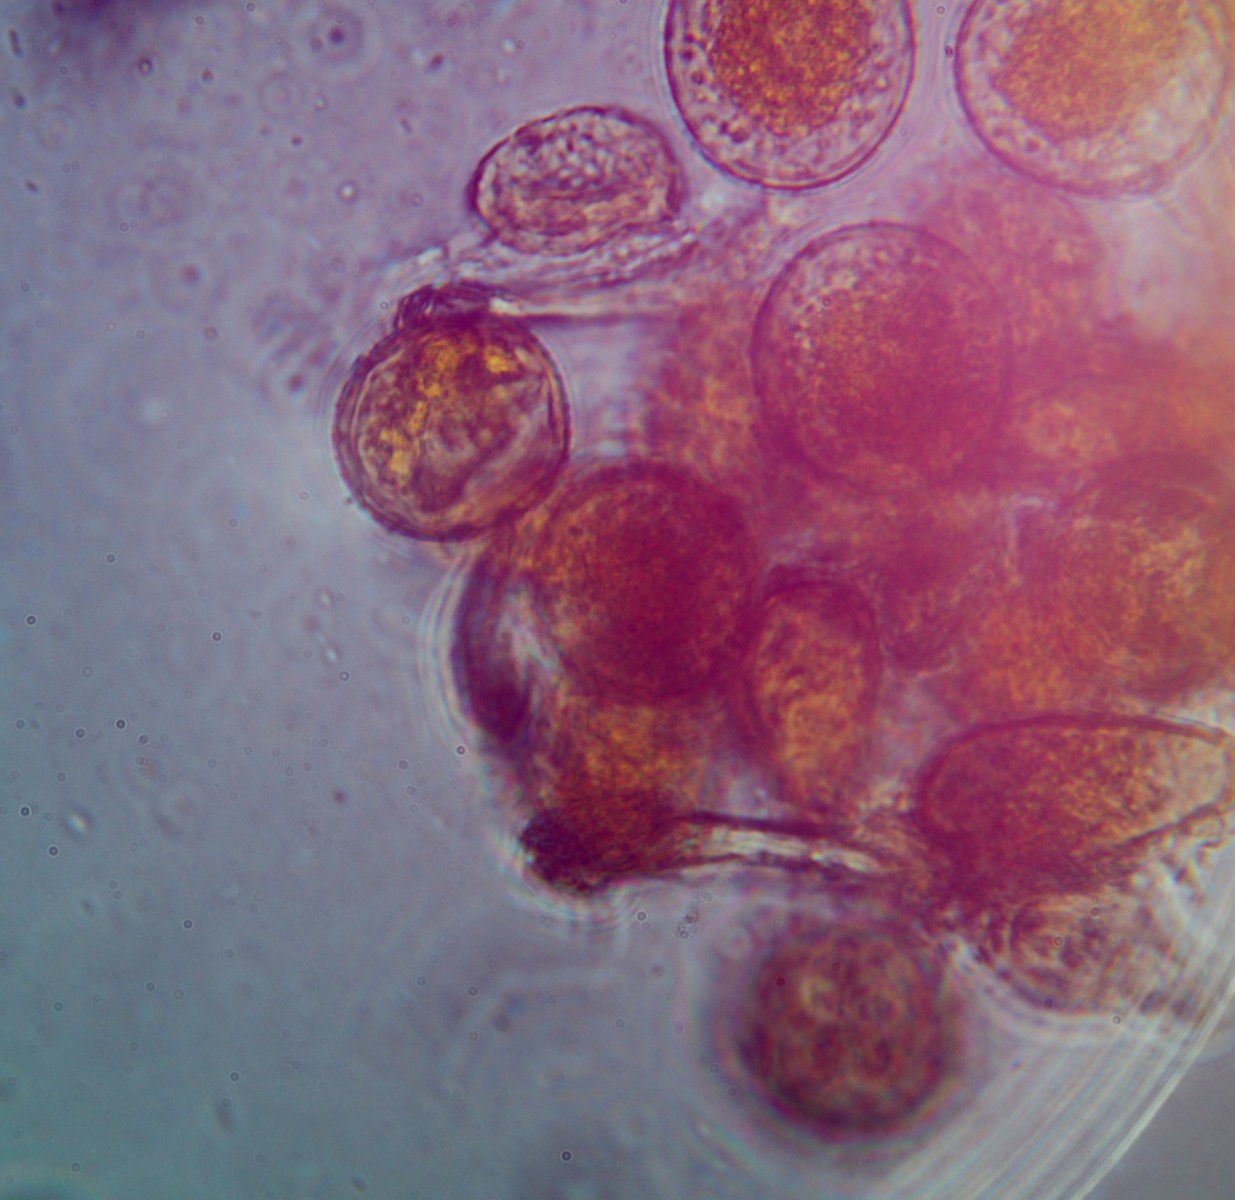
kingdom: Fungi
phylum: Basidiomycota
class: Pucciniomycetes
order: Pucciniales
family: Pucciniaceae
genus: Puccinia
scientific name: Puccinia brachypodii
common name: Rust fungus
